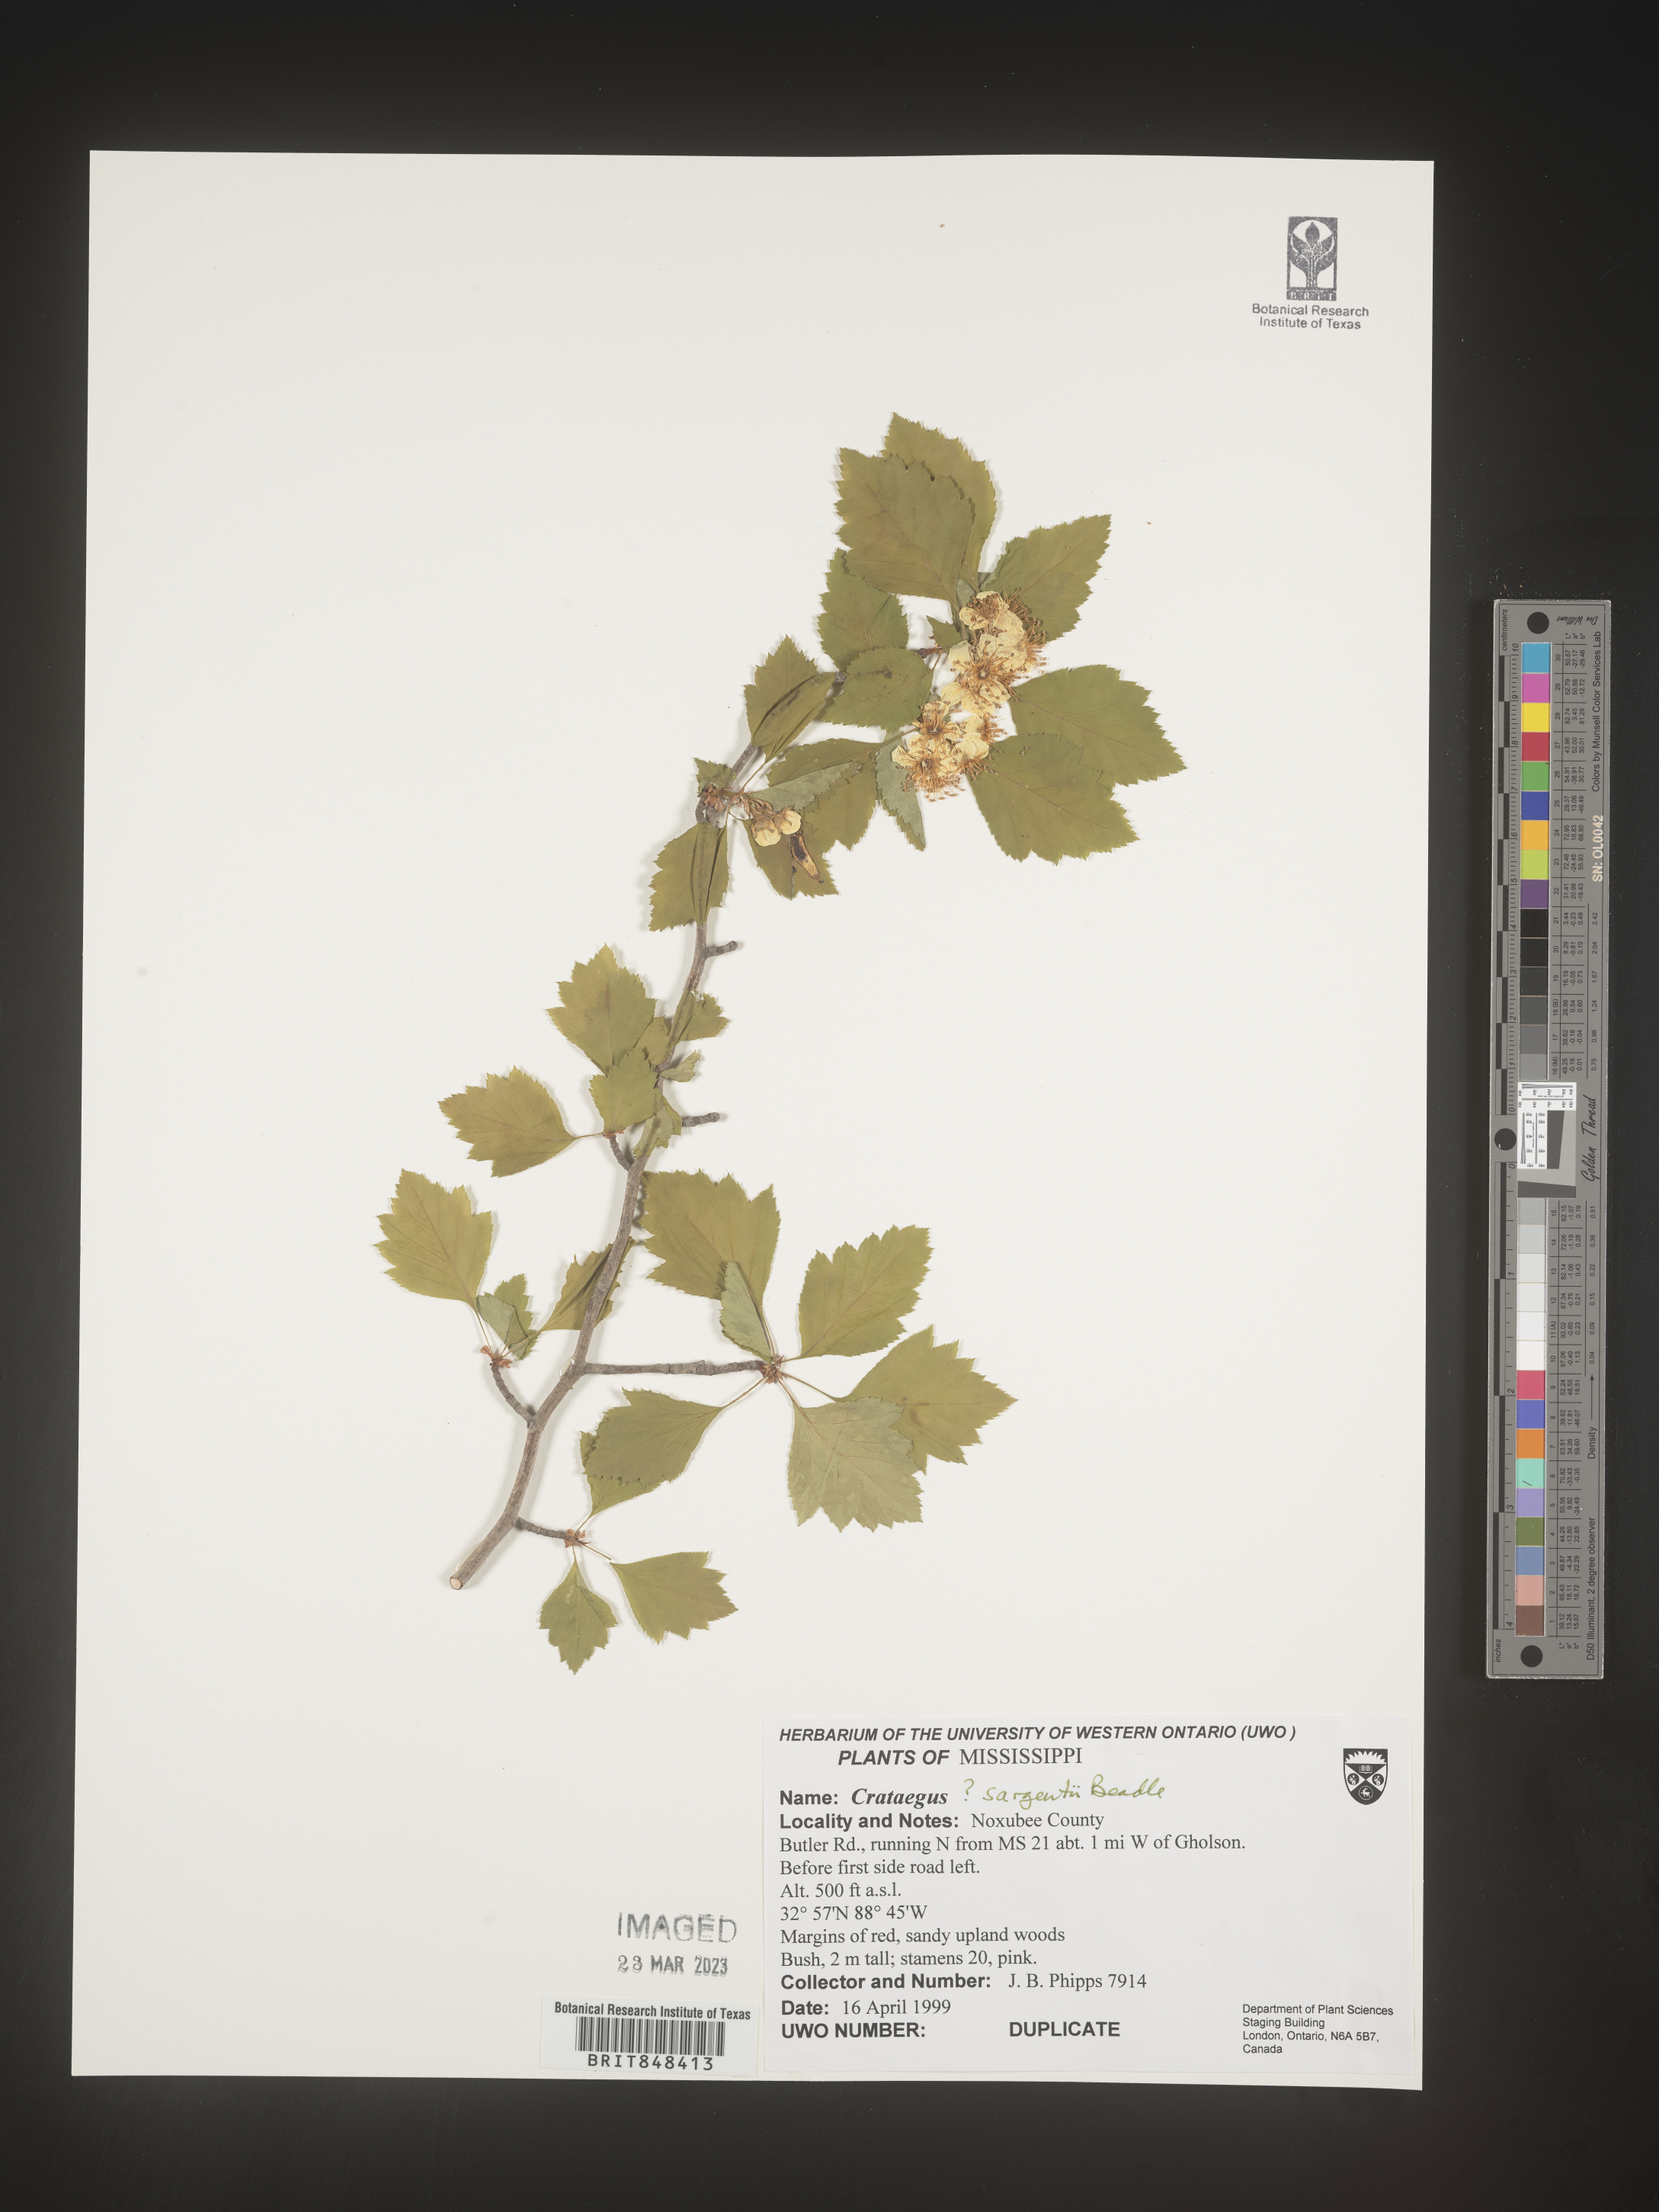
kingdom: Plantae
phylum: Tracheophyta
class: Magnoliopsida
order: Rosales
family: Rosaceae
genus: Crataegus
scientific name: Crataegus
